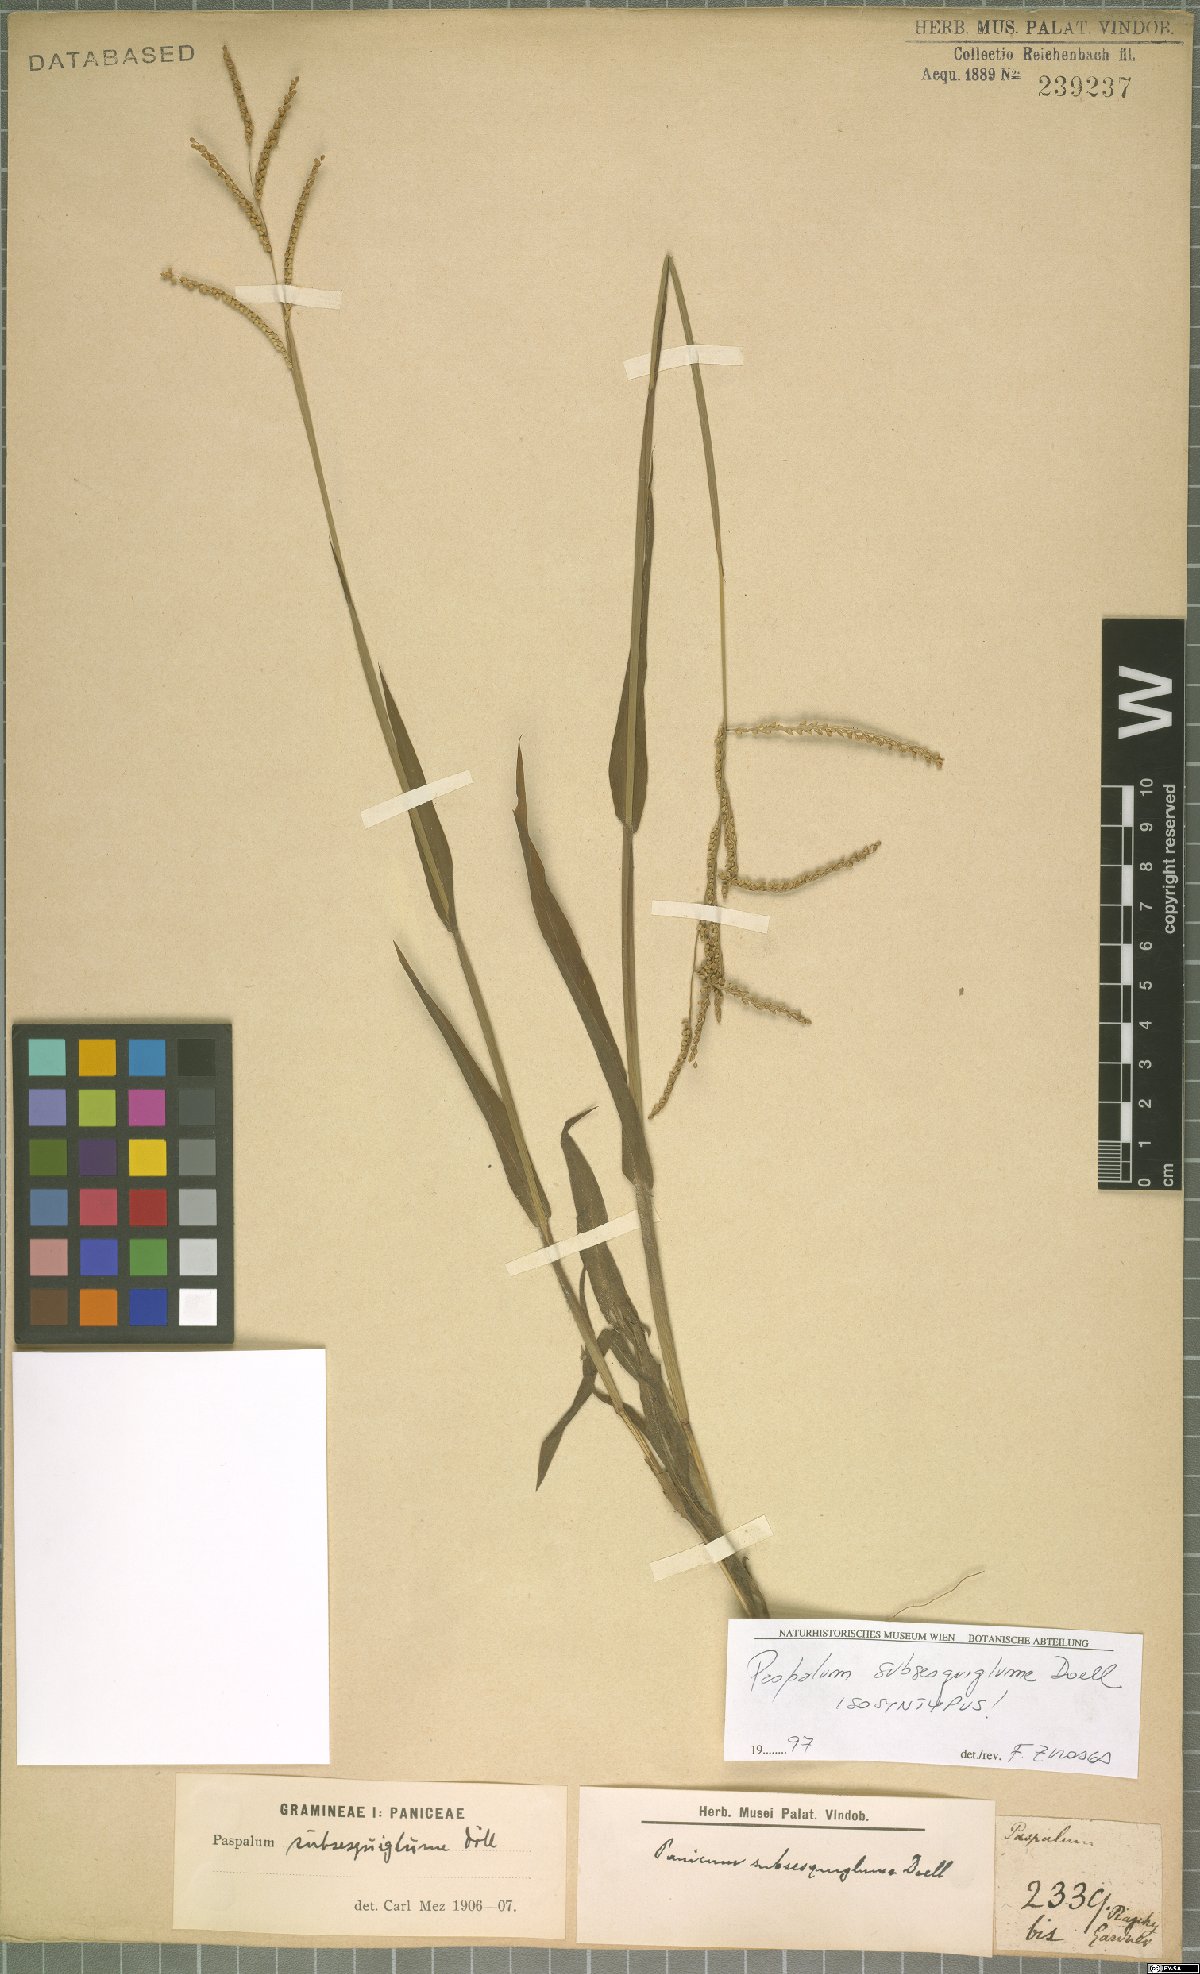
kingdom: Plantae
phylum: Tracheophyta
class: Liliopsida
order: Poales
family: Poaceae
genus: Paspalum
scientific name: Paspalum subsesquiglume
